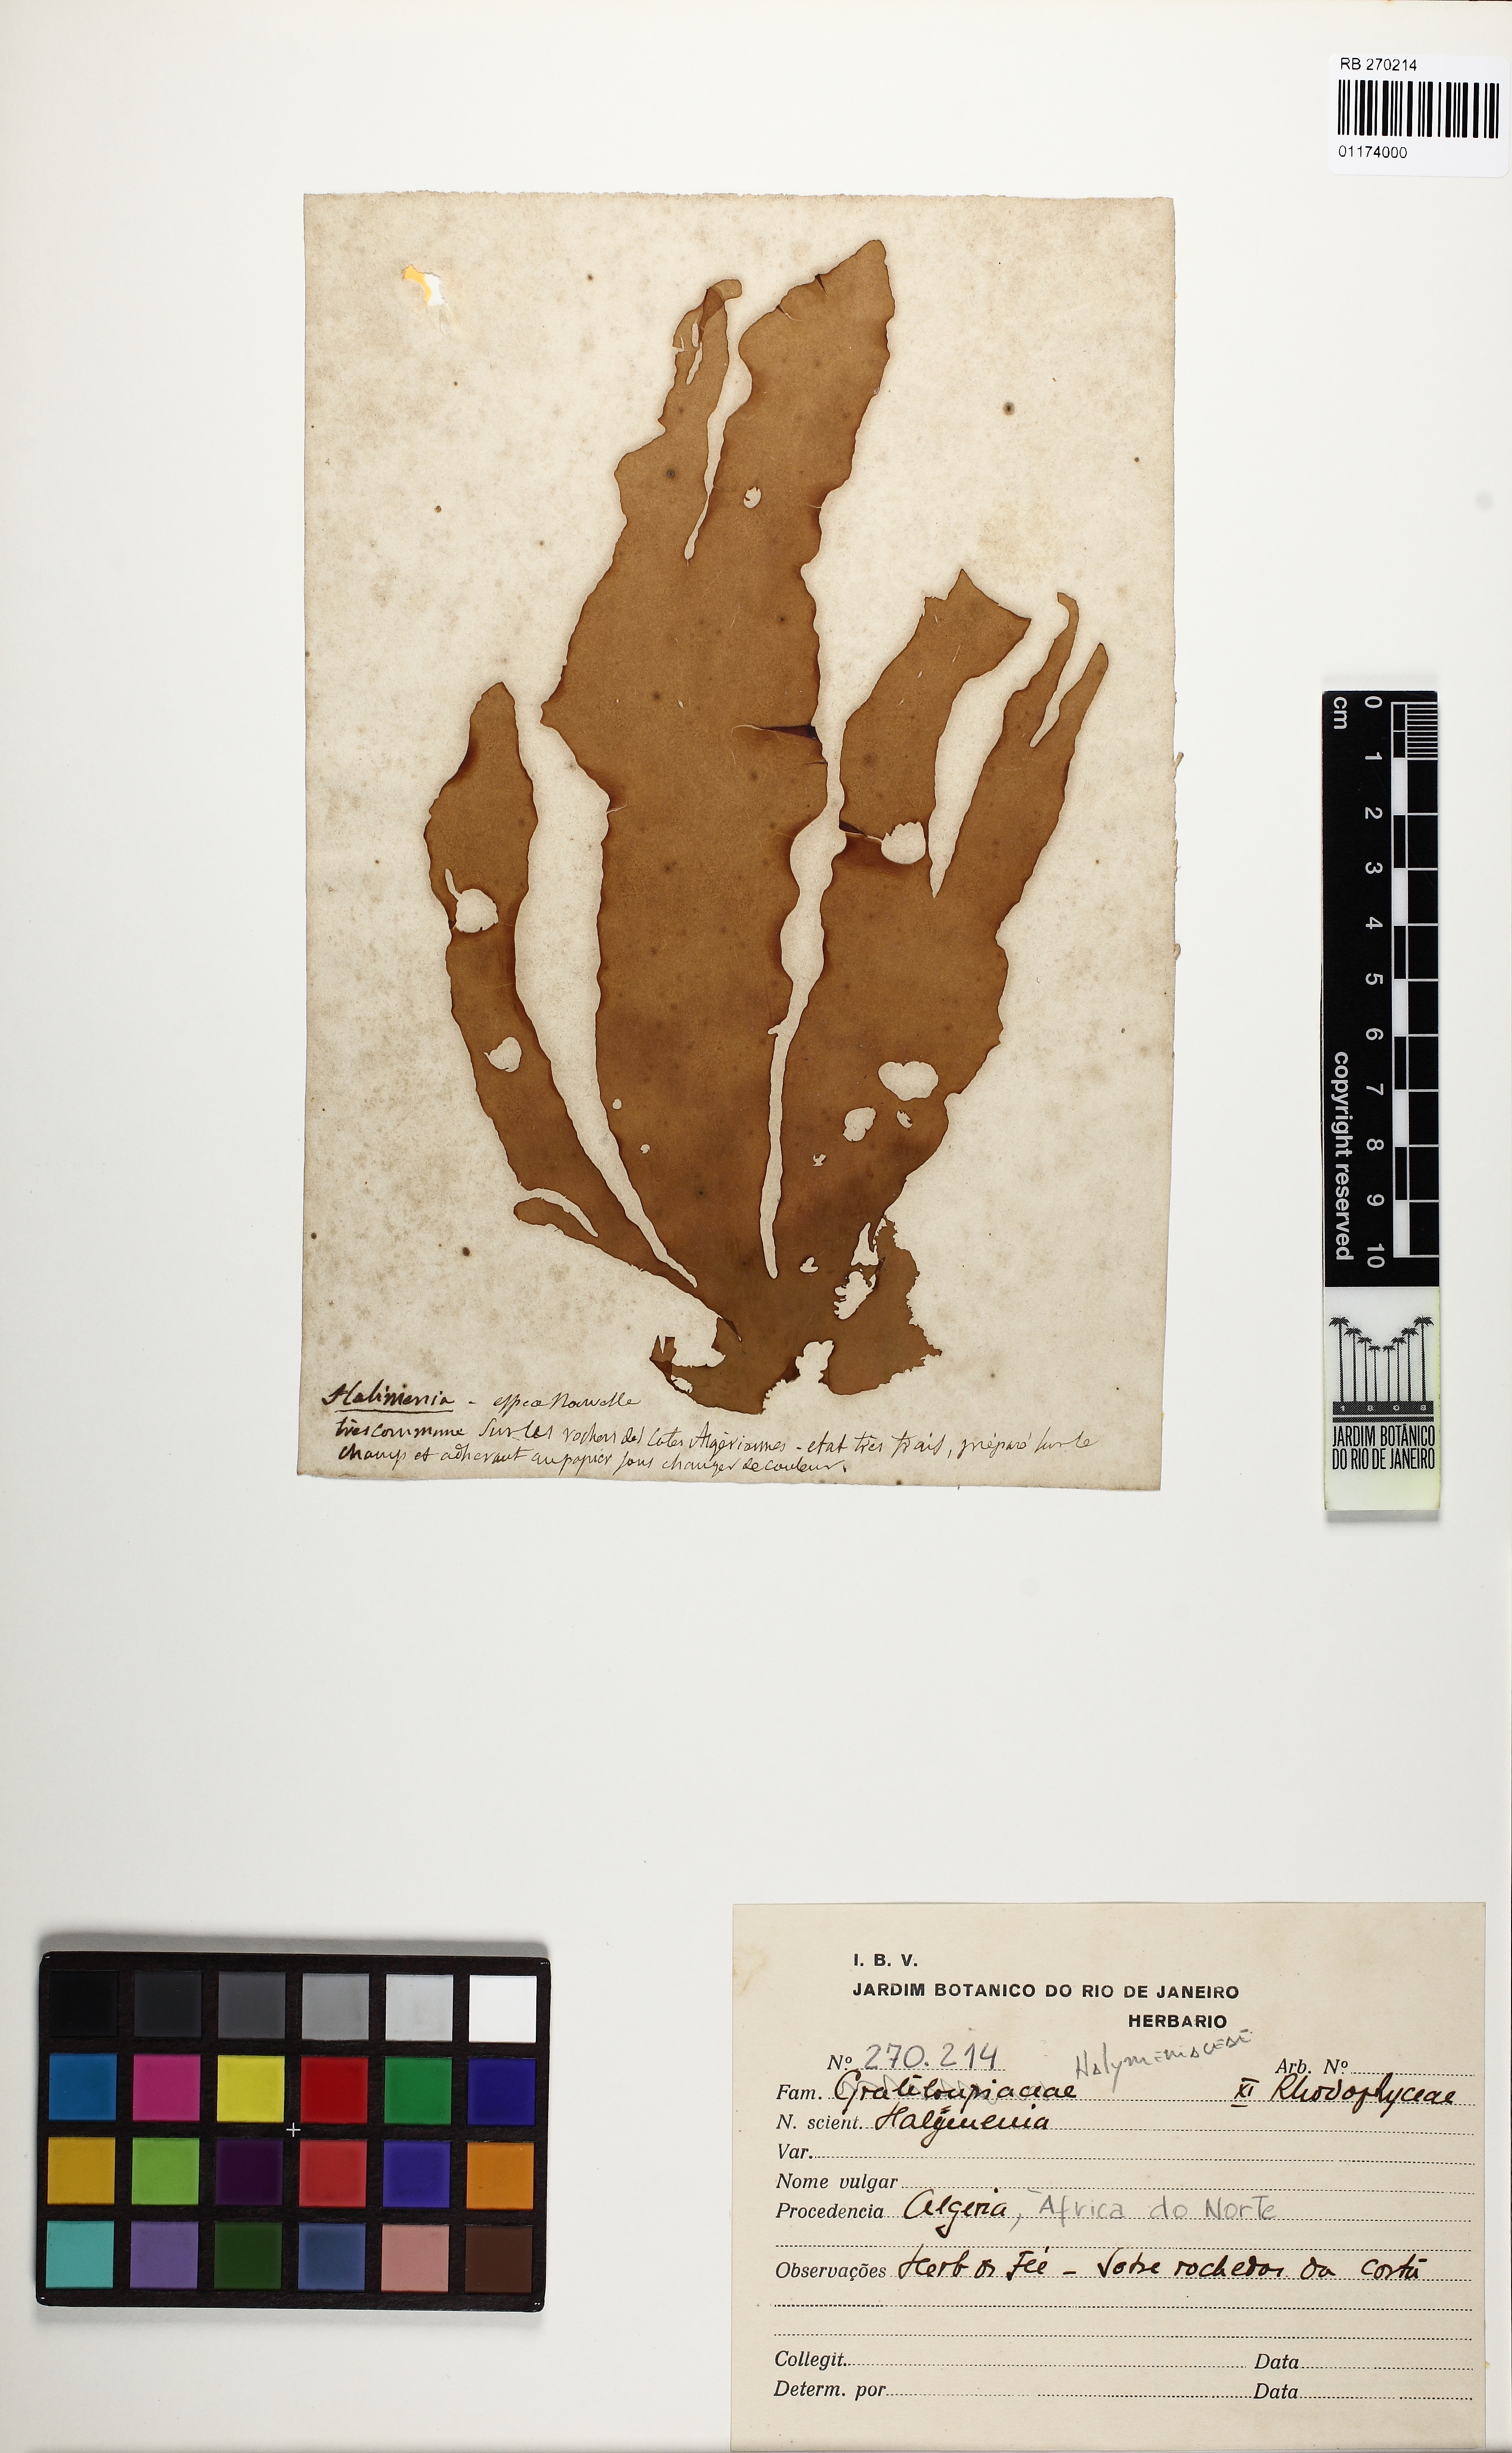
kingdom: Plantae
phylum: Rhodophyta
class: Florideophyceae
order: Halymeniales
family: Halymeniaceae
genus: Halymenia
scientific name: Halymenia
